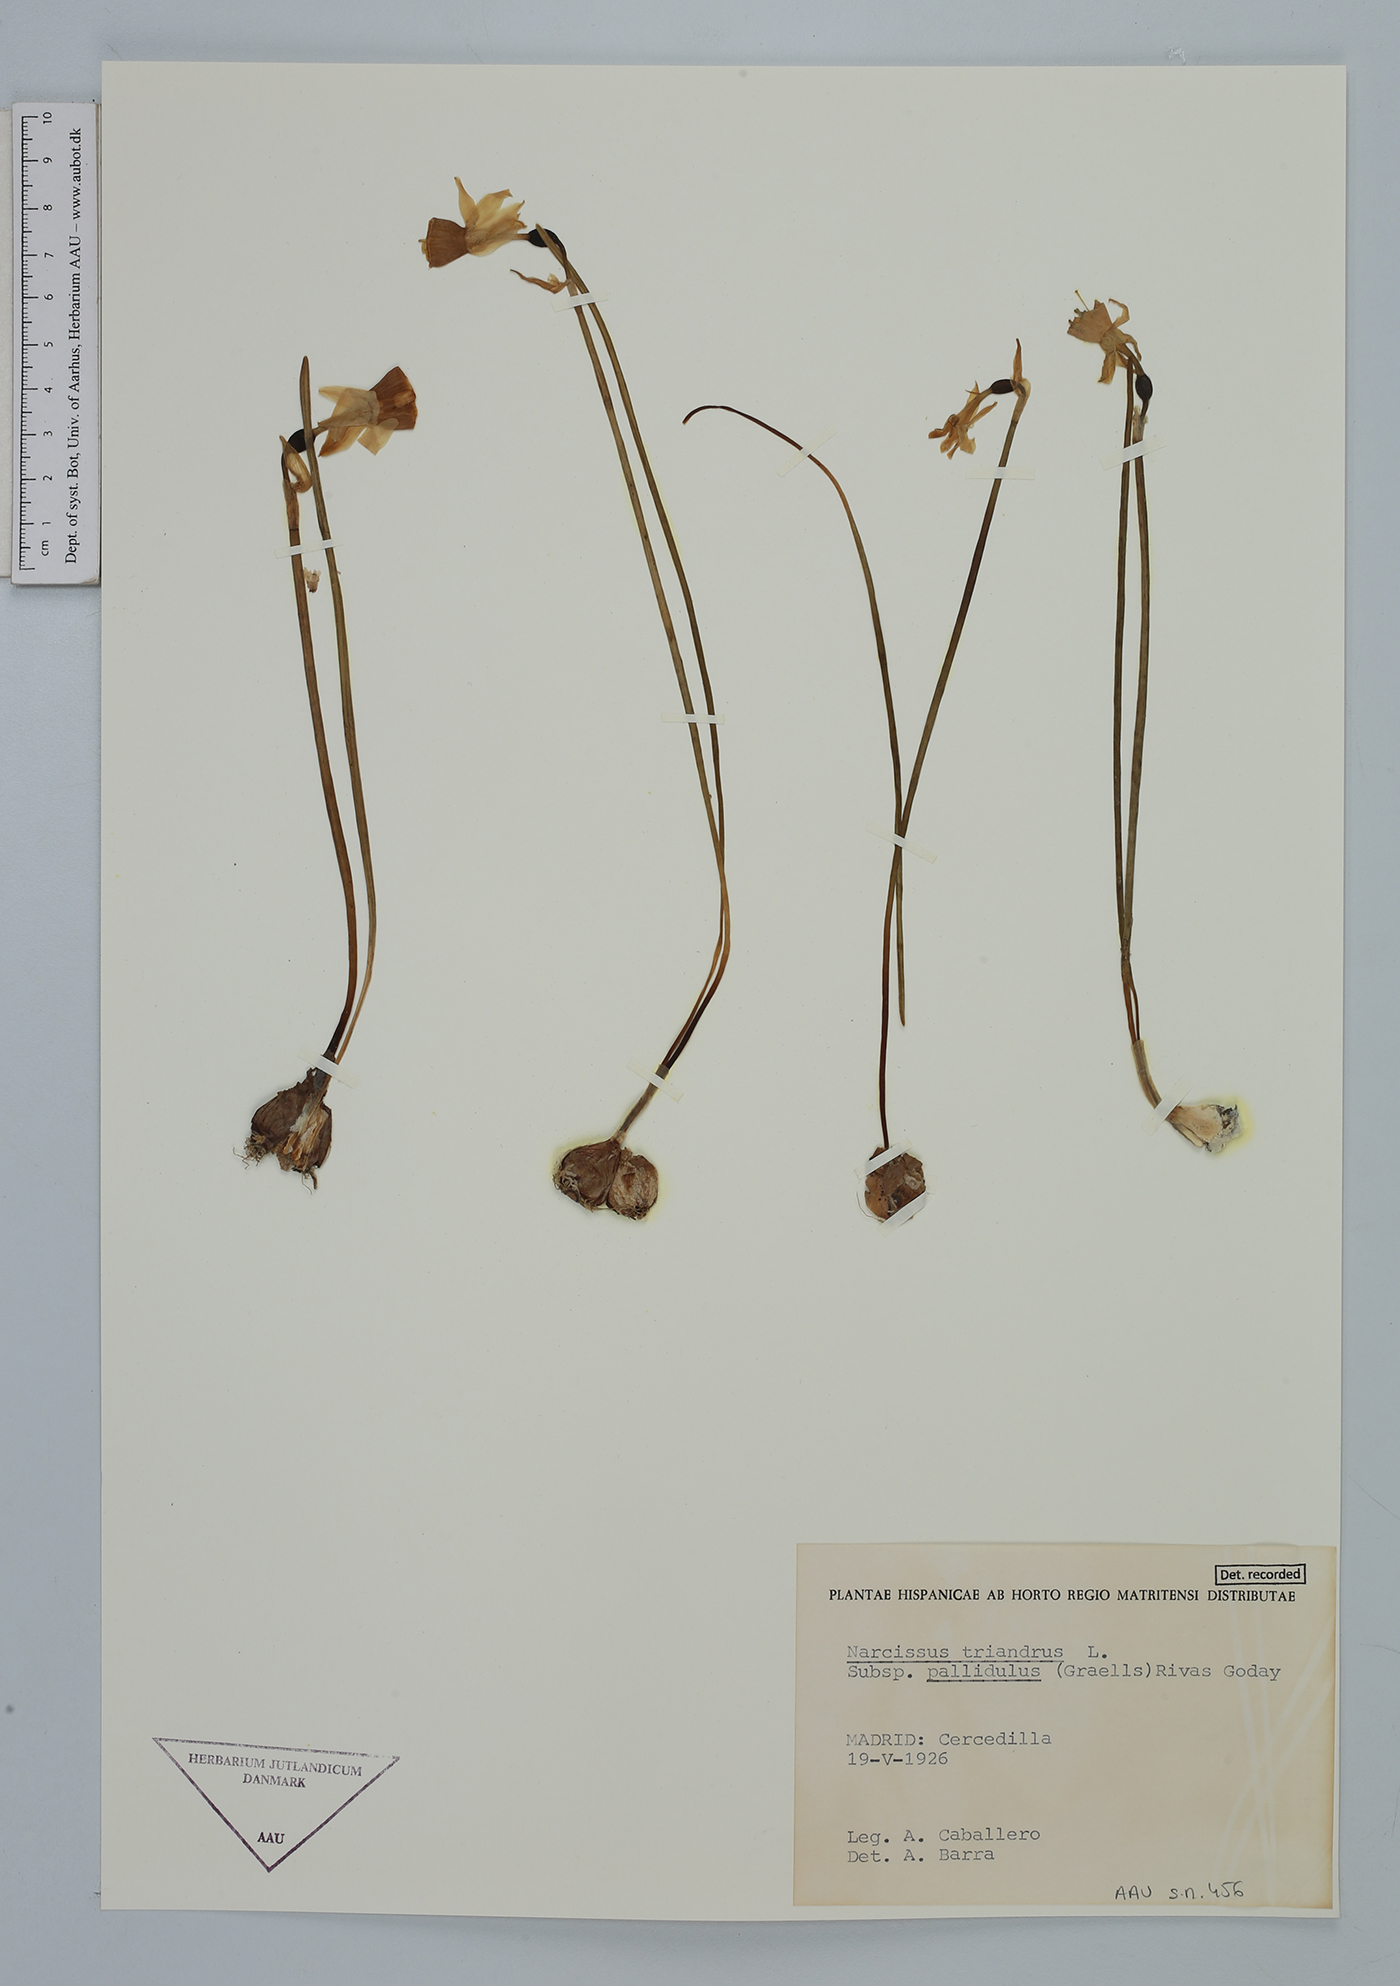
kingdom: Plantae
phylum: Tracheophyta
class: Liliopsida
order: Asparagales
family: Amaryllidaceae
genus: Narcissus
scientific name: Narcissus triandrus
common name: Angel's-tears
